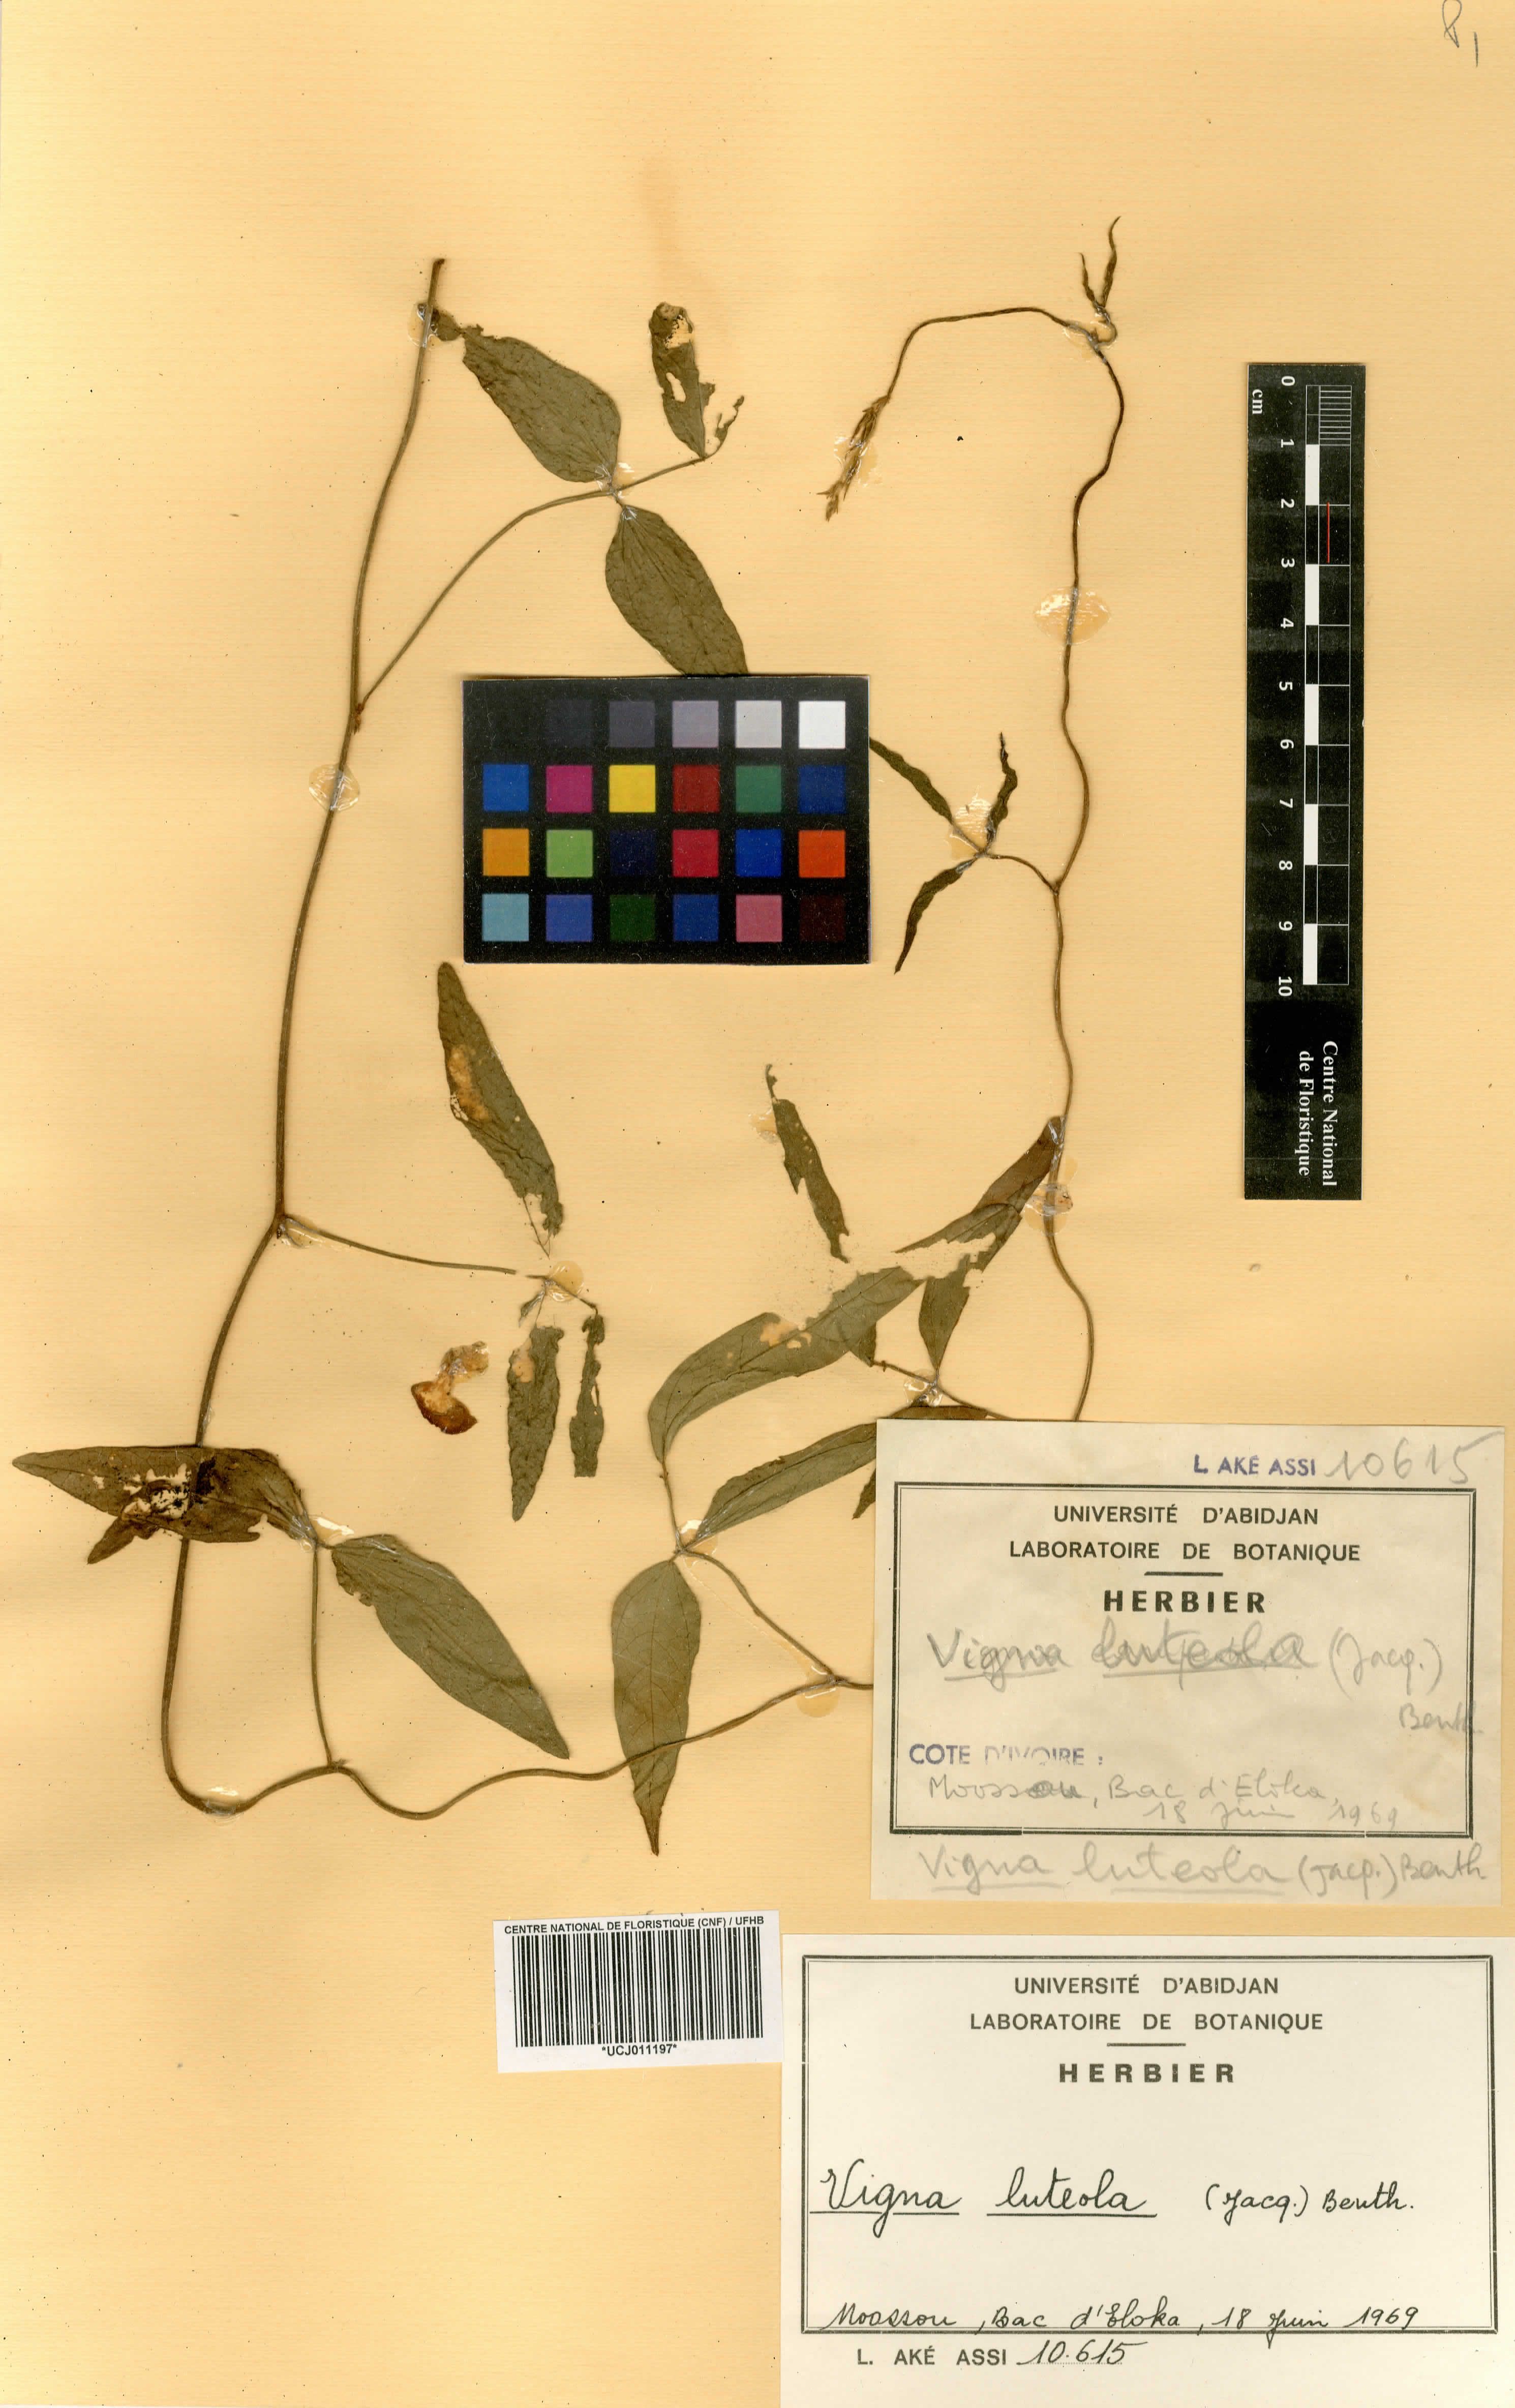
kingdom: Plantae
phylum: Tracheophyta
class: Magnoliopsida
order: Fabales
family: Fabaceae
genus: Vigna
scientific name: Vigna luteola
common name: Hairypod cowpea
